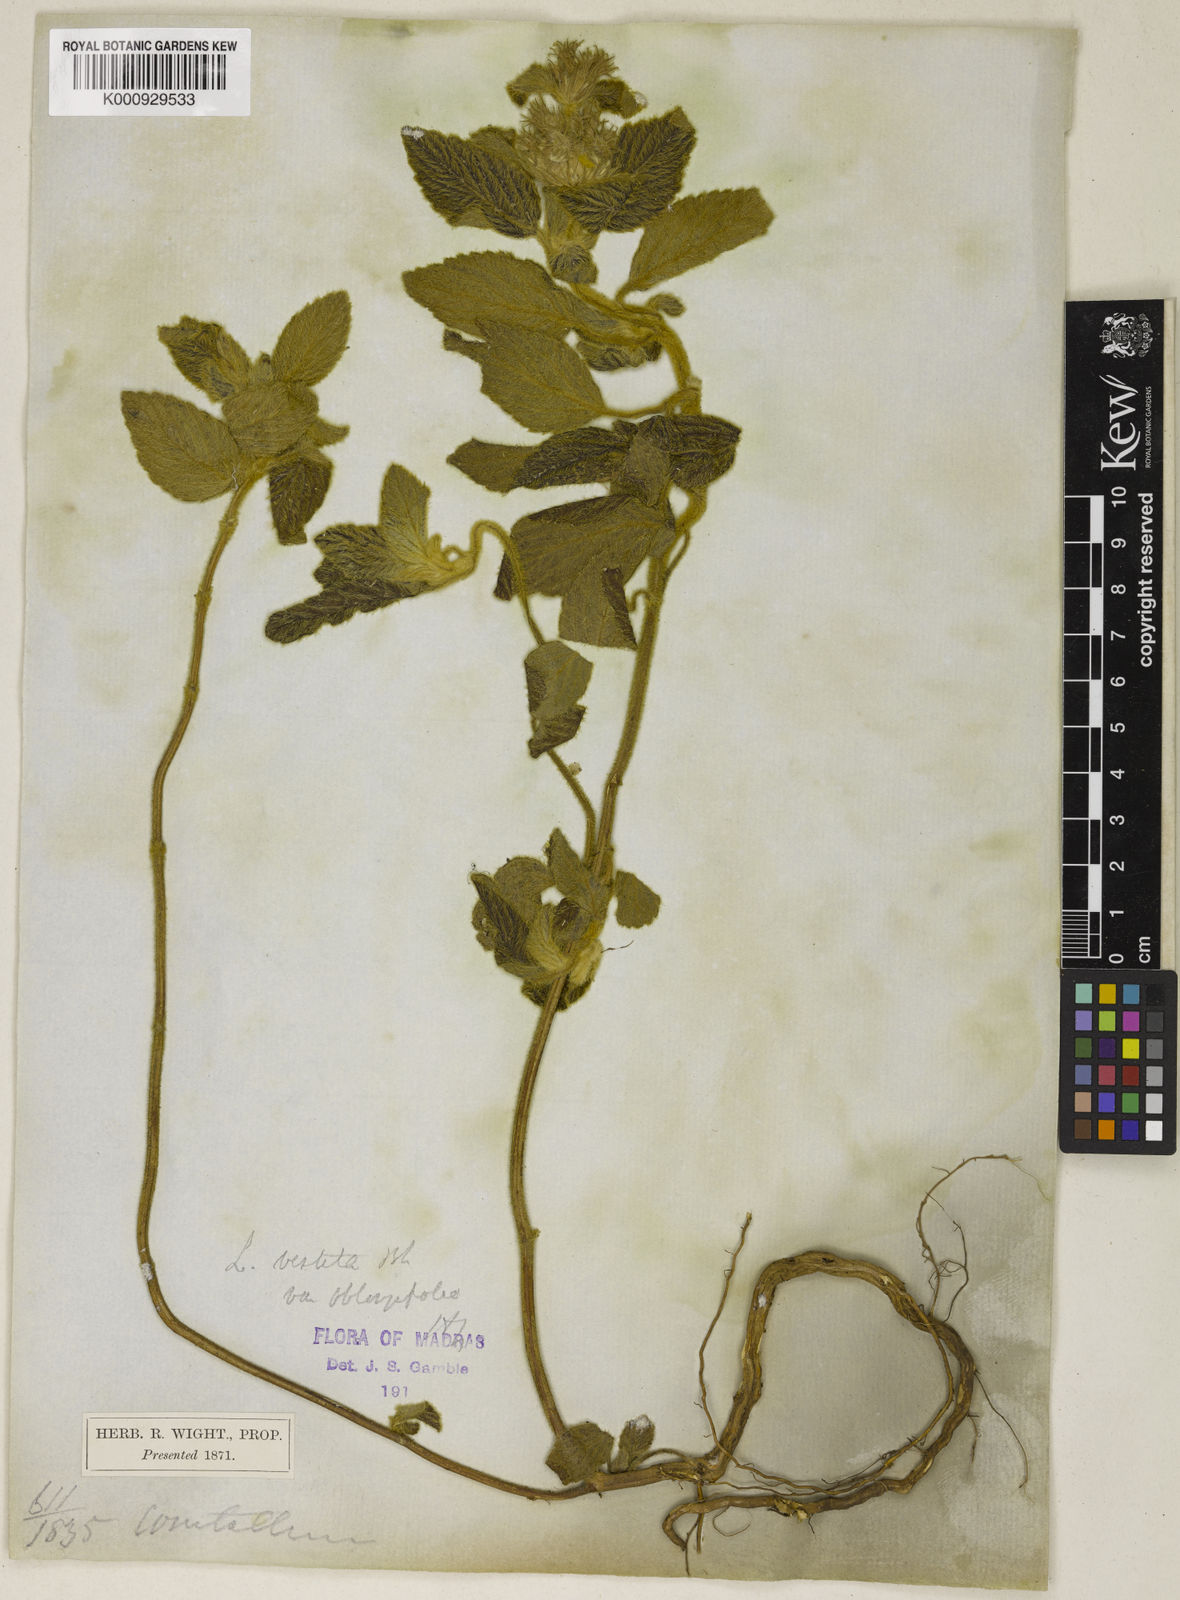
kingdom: Plantae
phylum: Tracheophyta
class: Magnoliopsida
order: Lamiales
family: Lamiaceae
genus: Leucas
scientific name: Leucas vestita
